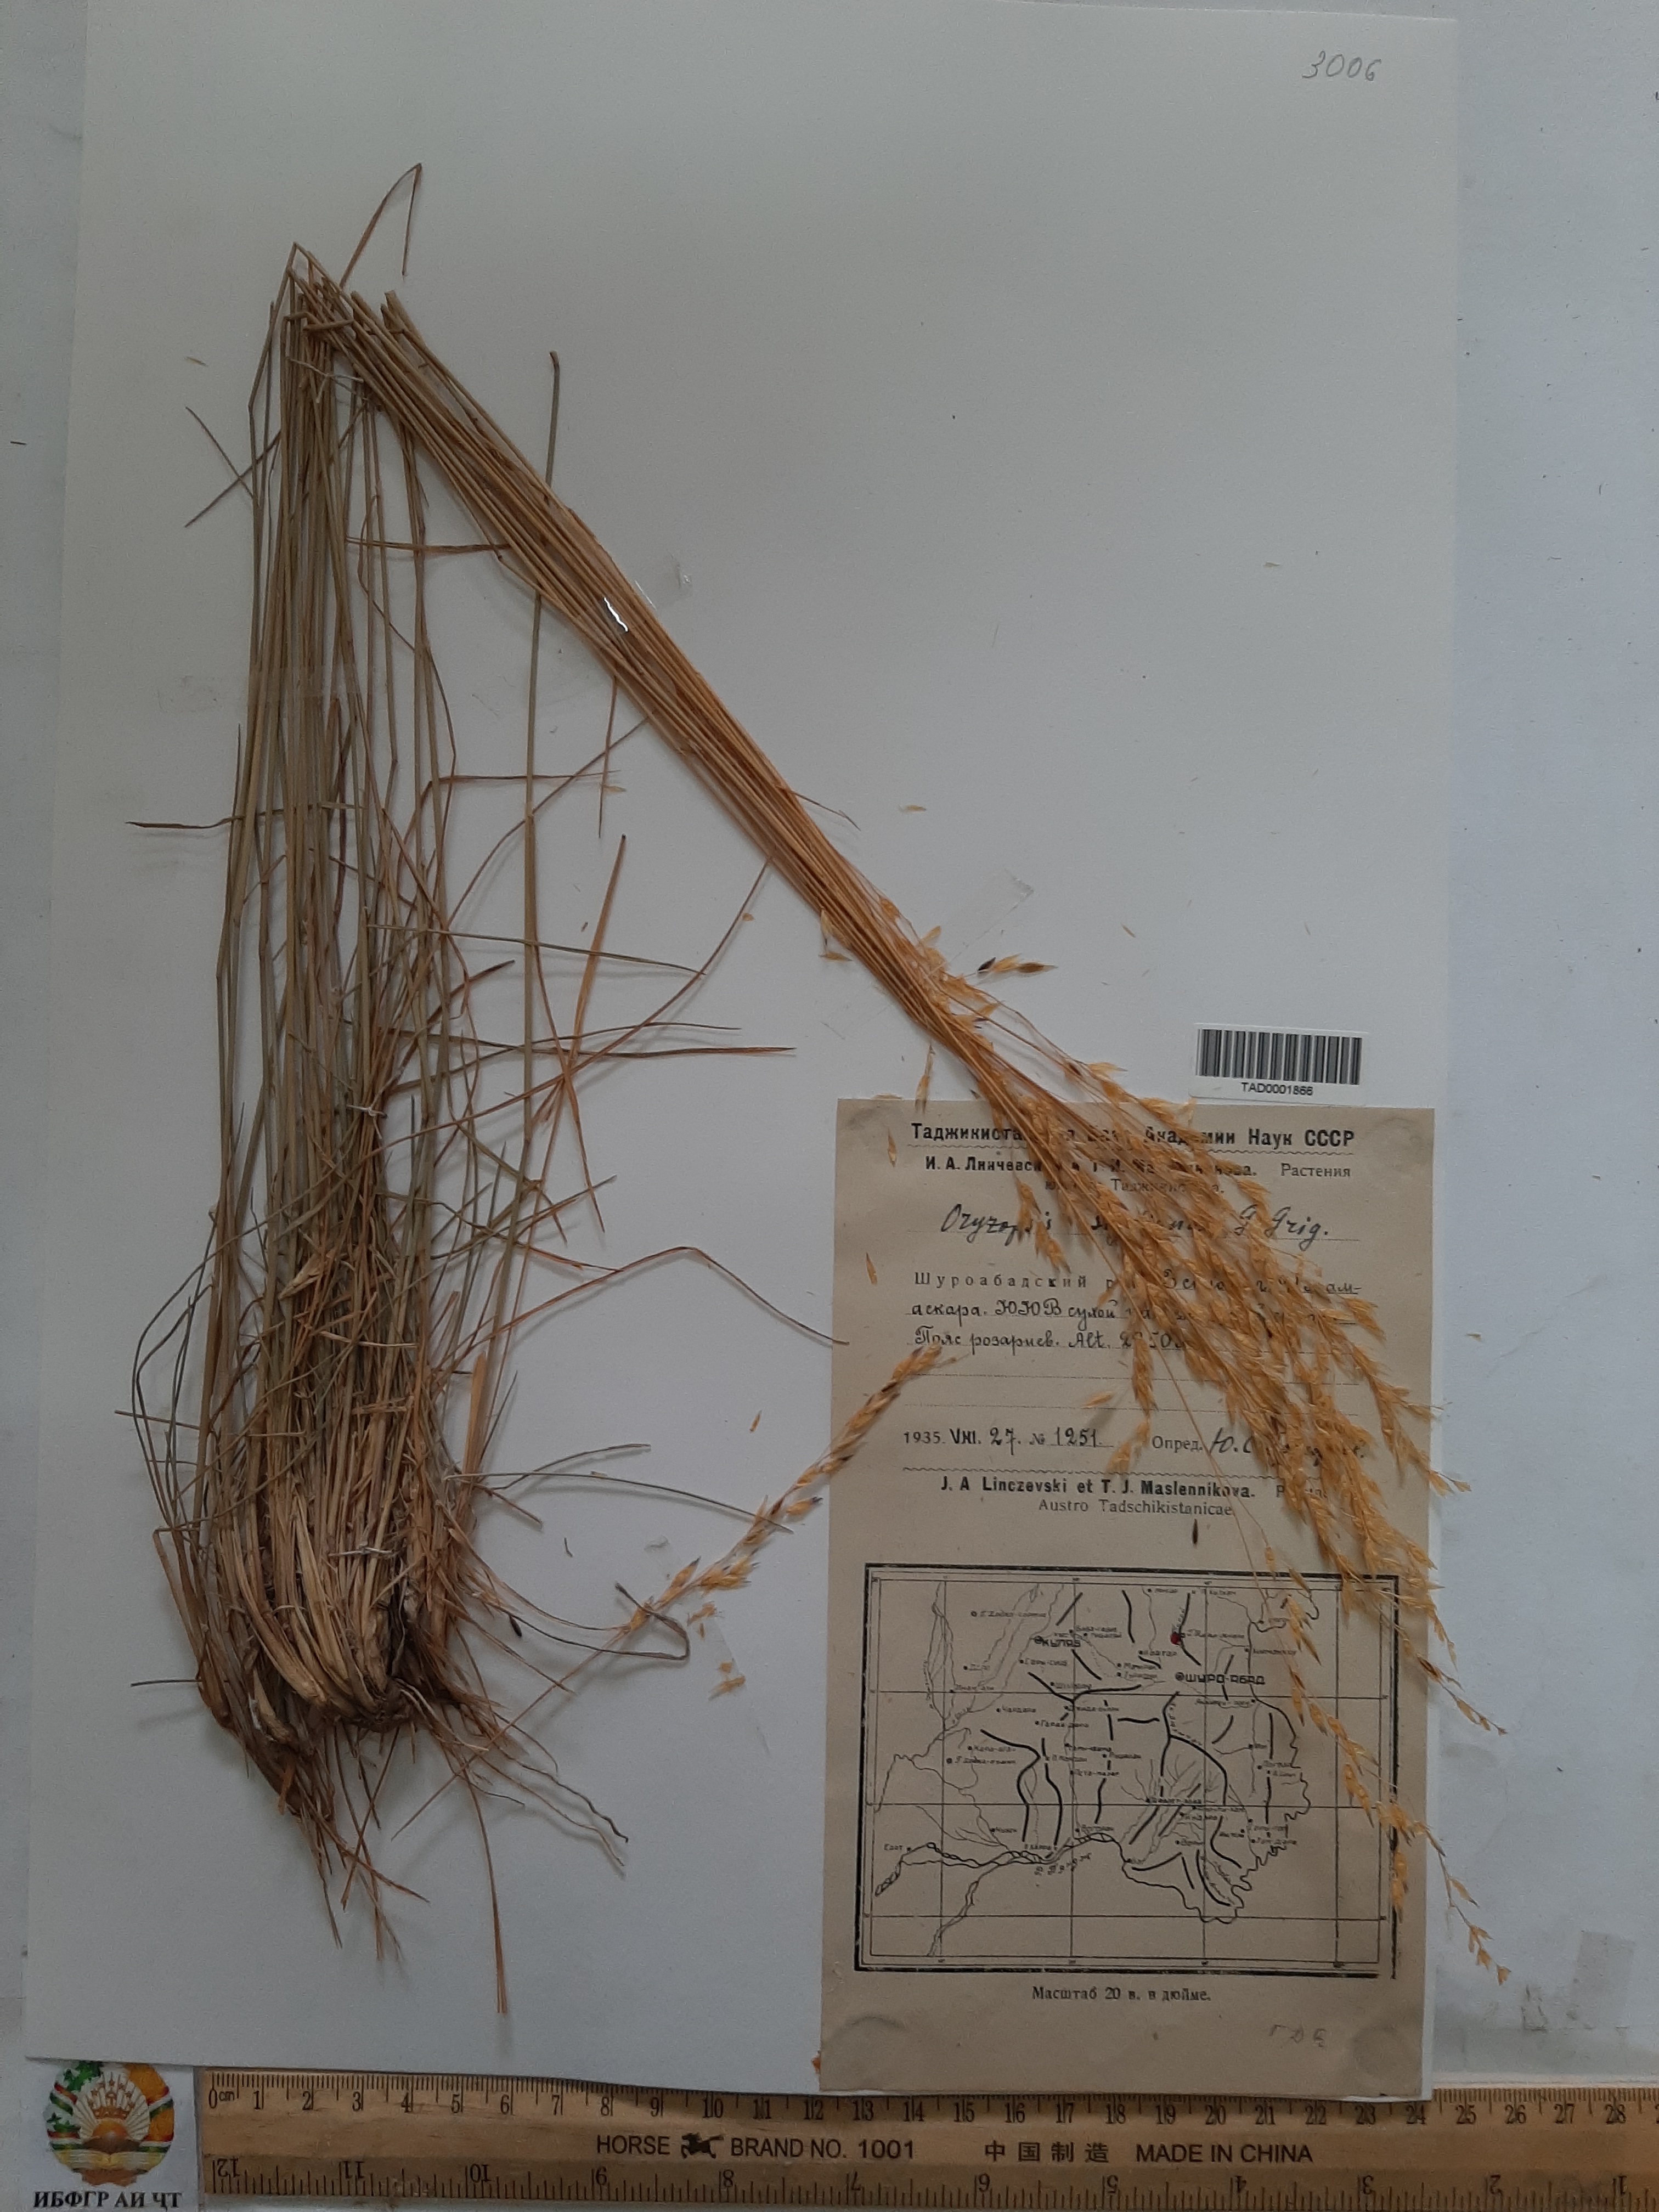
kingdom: Plantae
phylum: Tracheophyta
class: Liliopsida
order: Poales
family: Poaceae
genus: Piptatherum
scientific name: Piptatherum sogdianum
